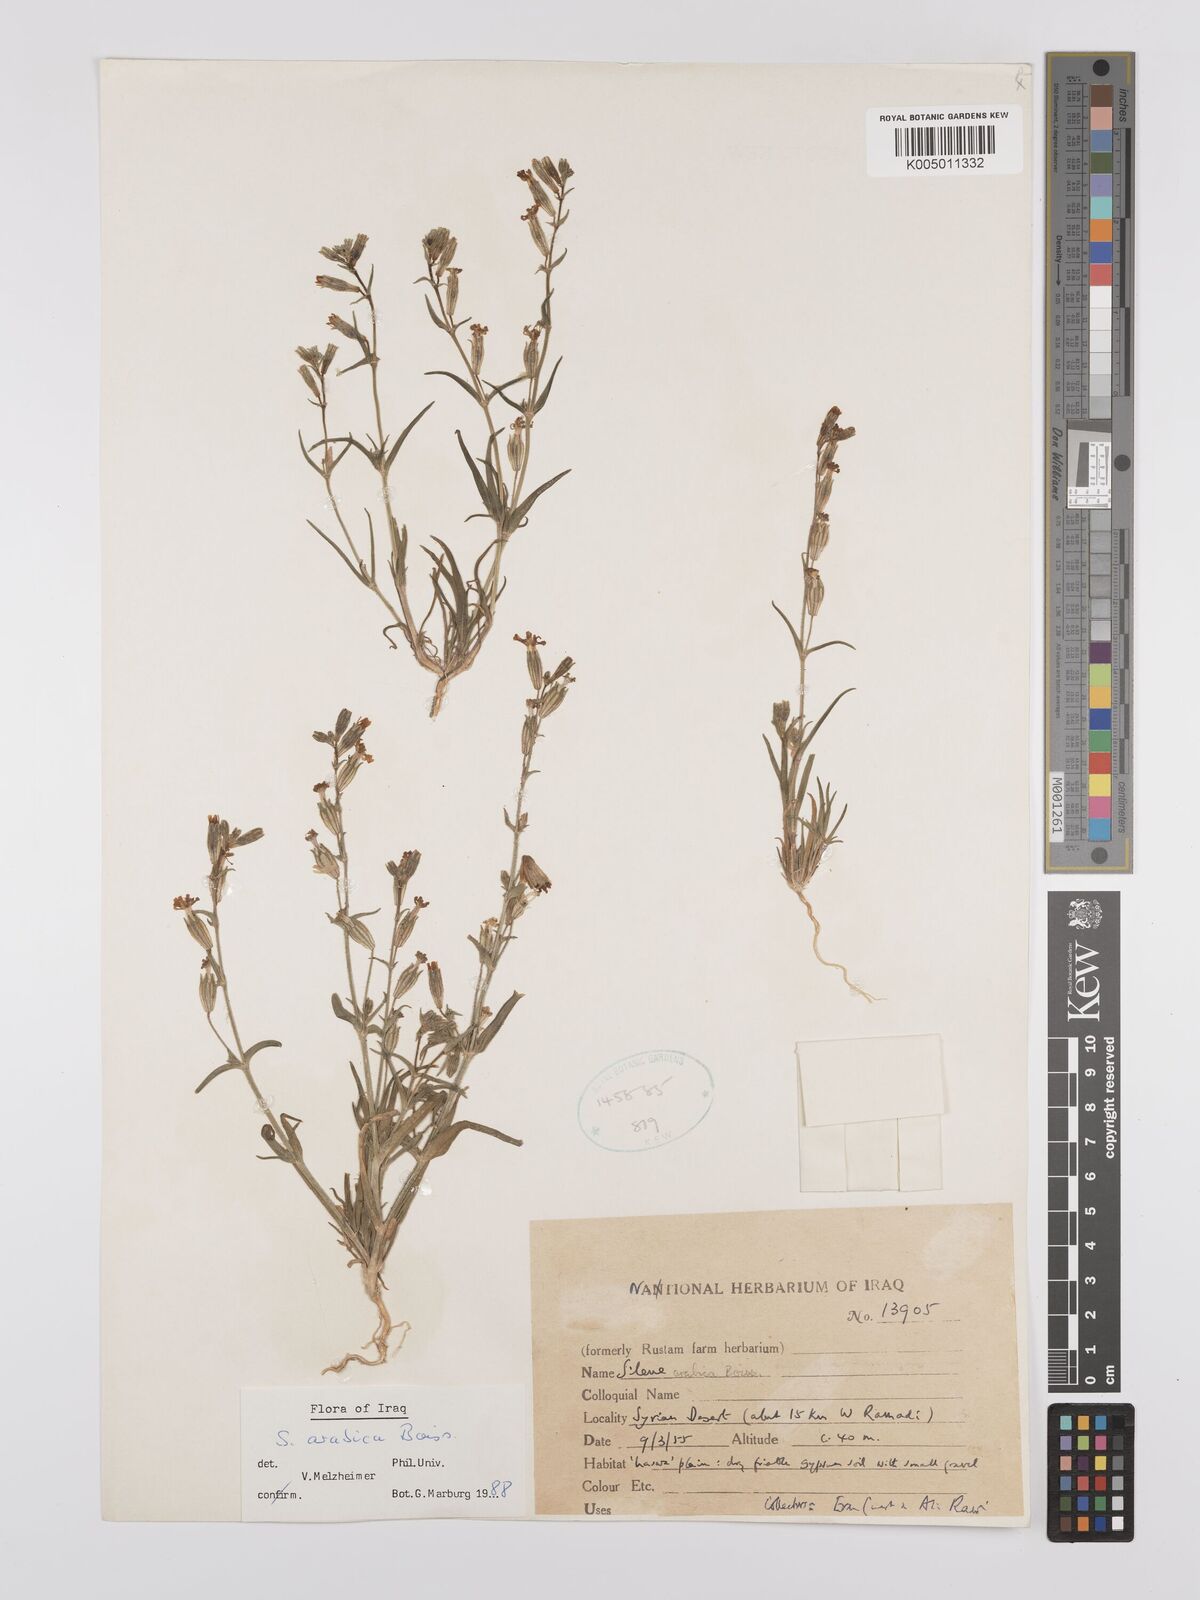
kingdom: Plantae
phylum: Tracheophyta
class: Magnoliopsida
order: Caryophyllales
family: Caryophyllaceae
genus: Silene
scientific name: Silene arabica
